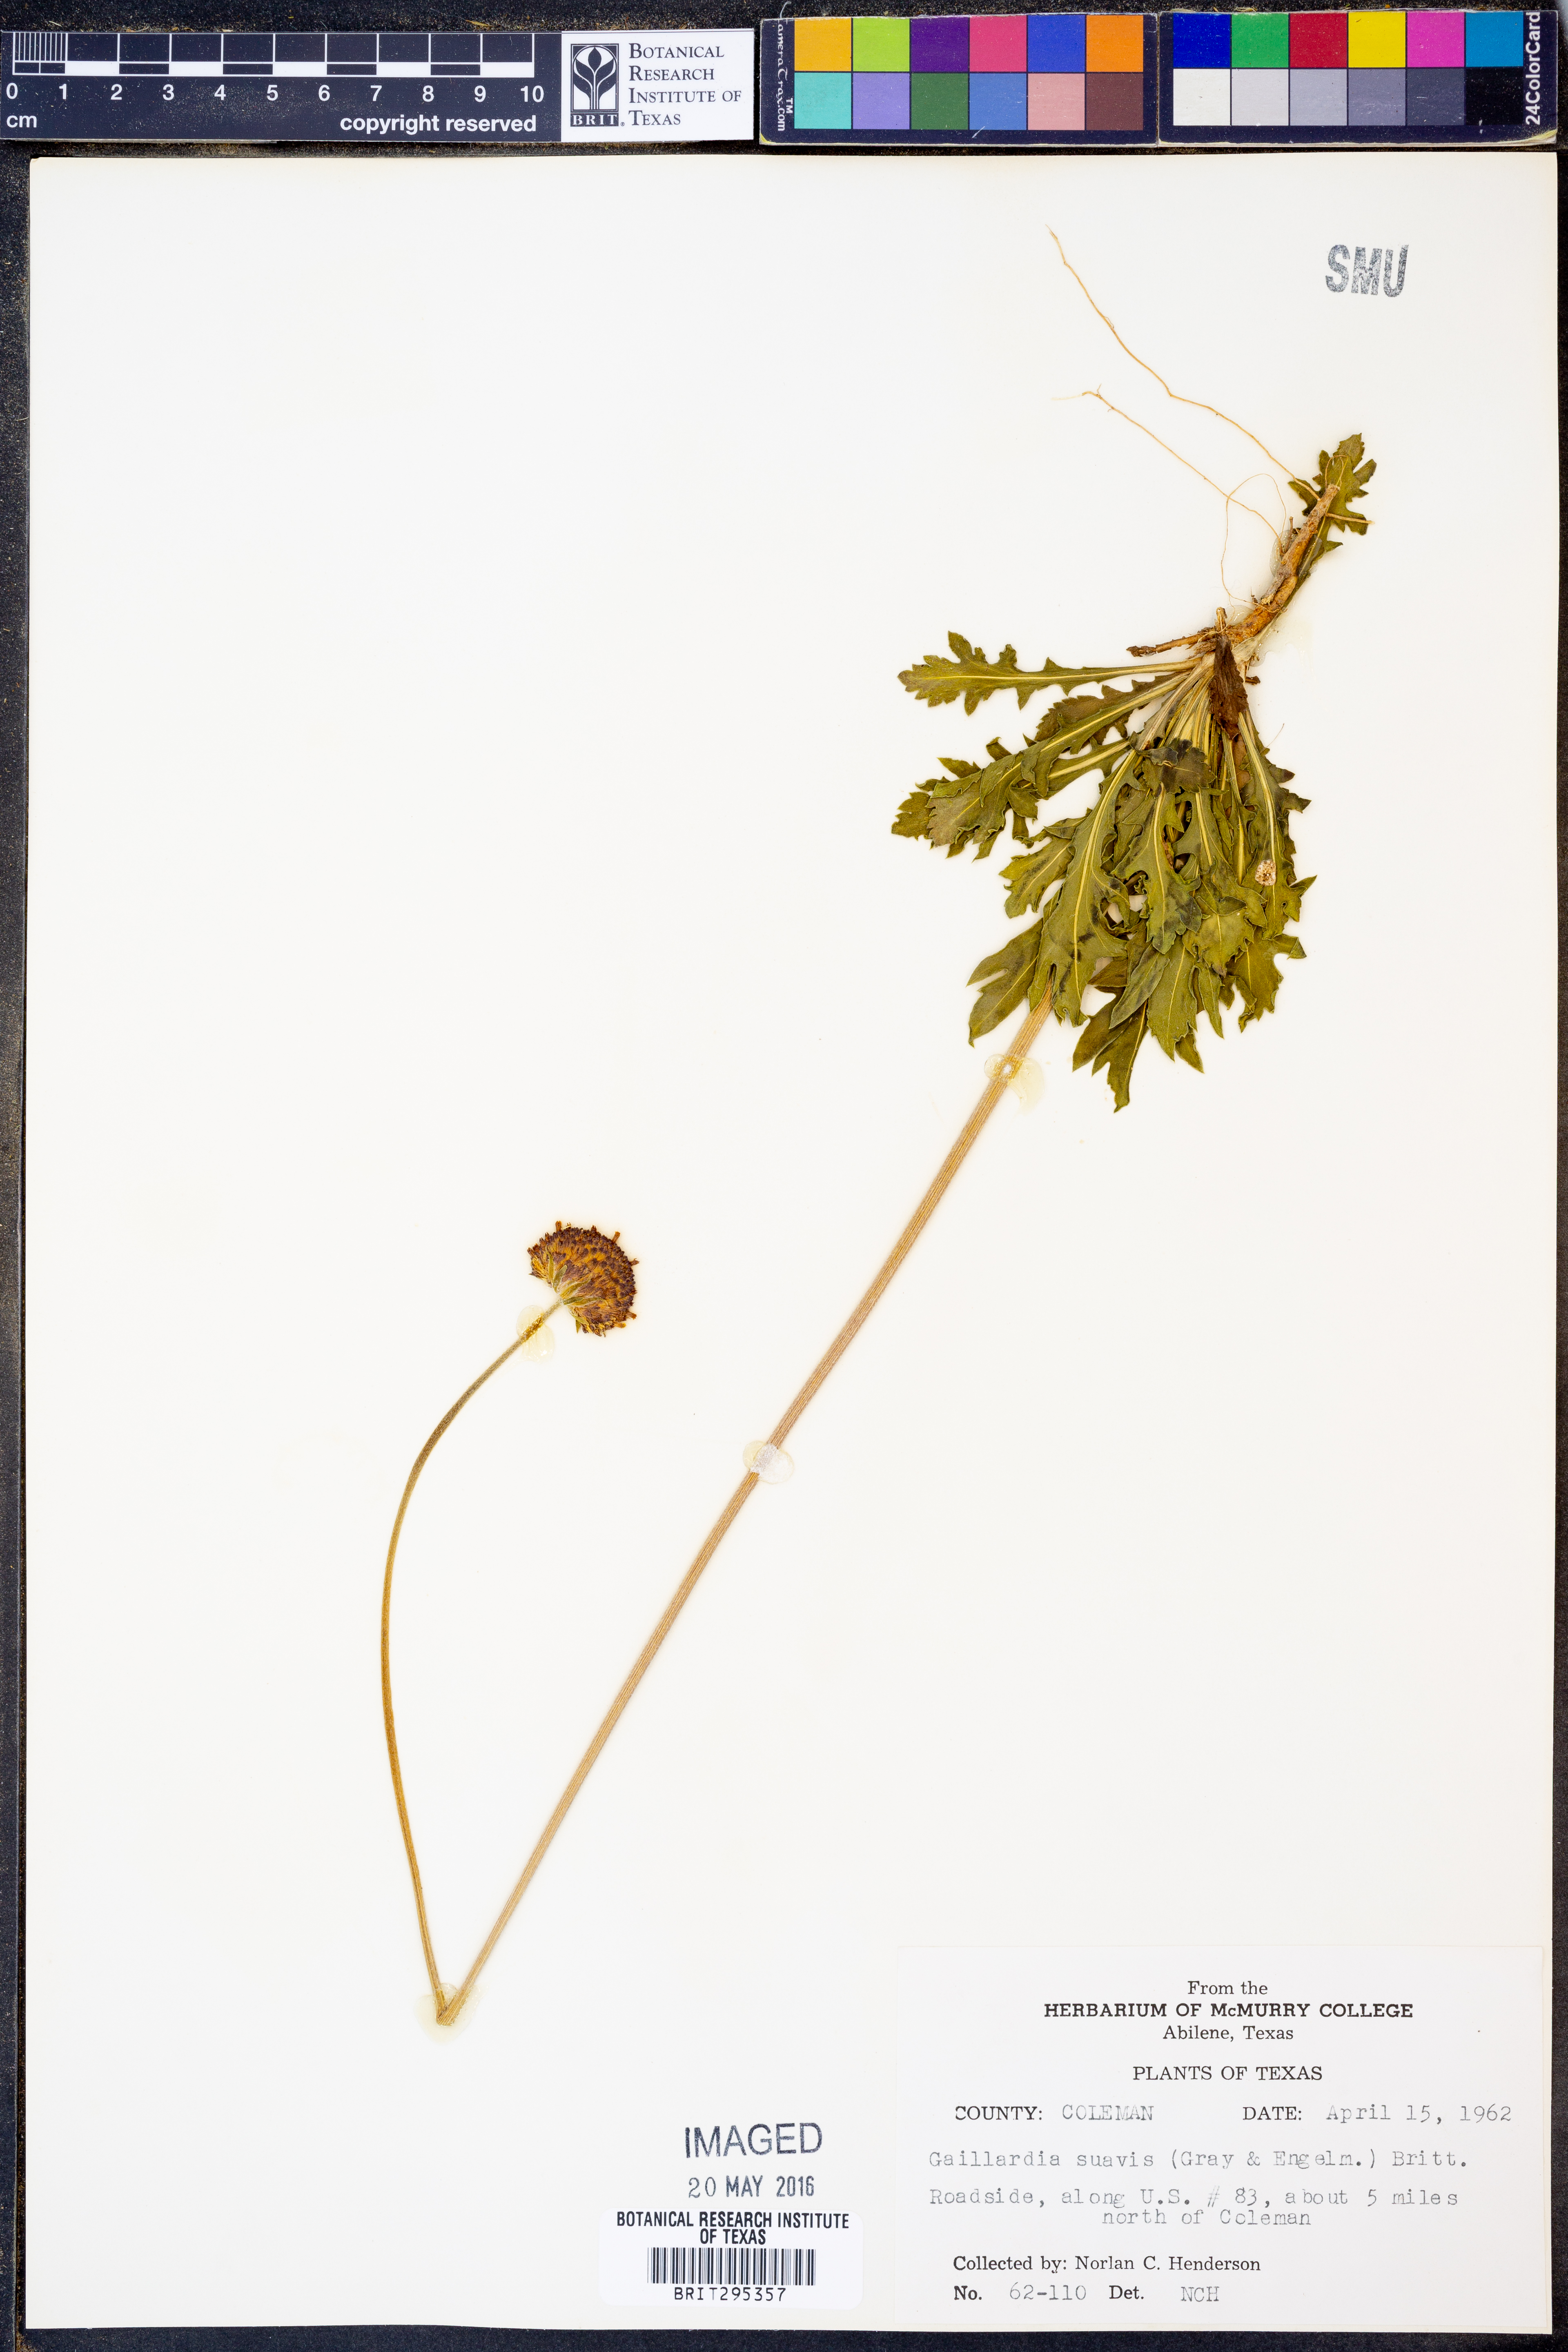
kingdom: Plantae
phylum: Tracheophyta
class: Magnoliopsida
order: Asterales
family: Asteraceae
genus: Gaillardia
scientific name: Gaillardia suavis
